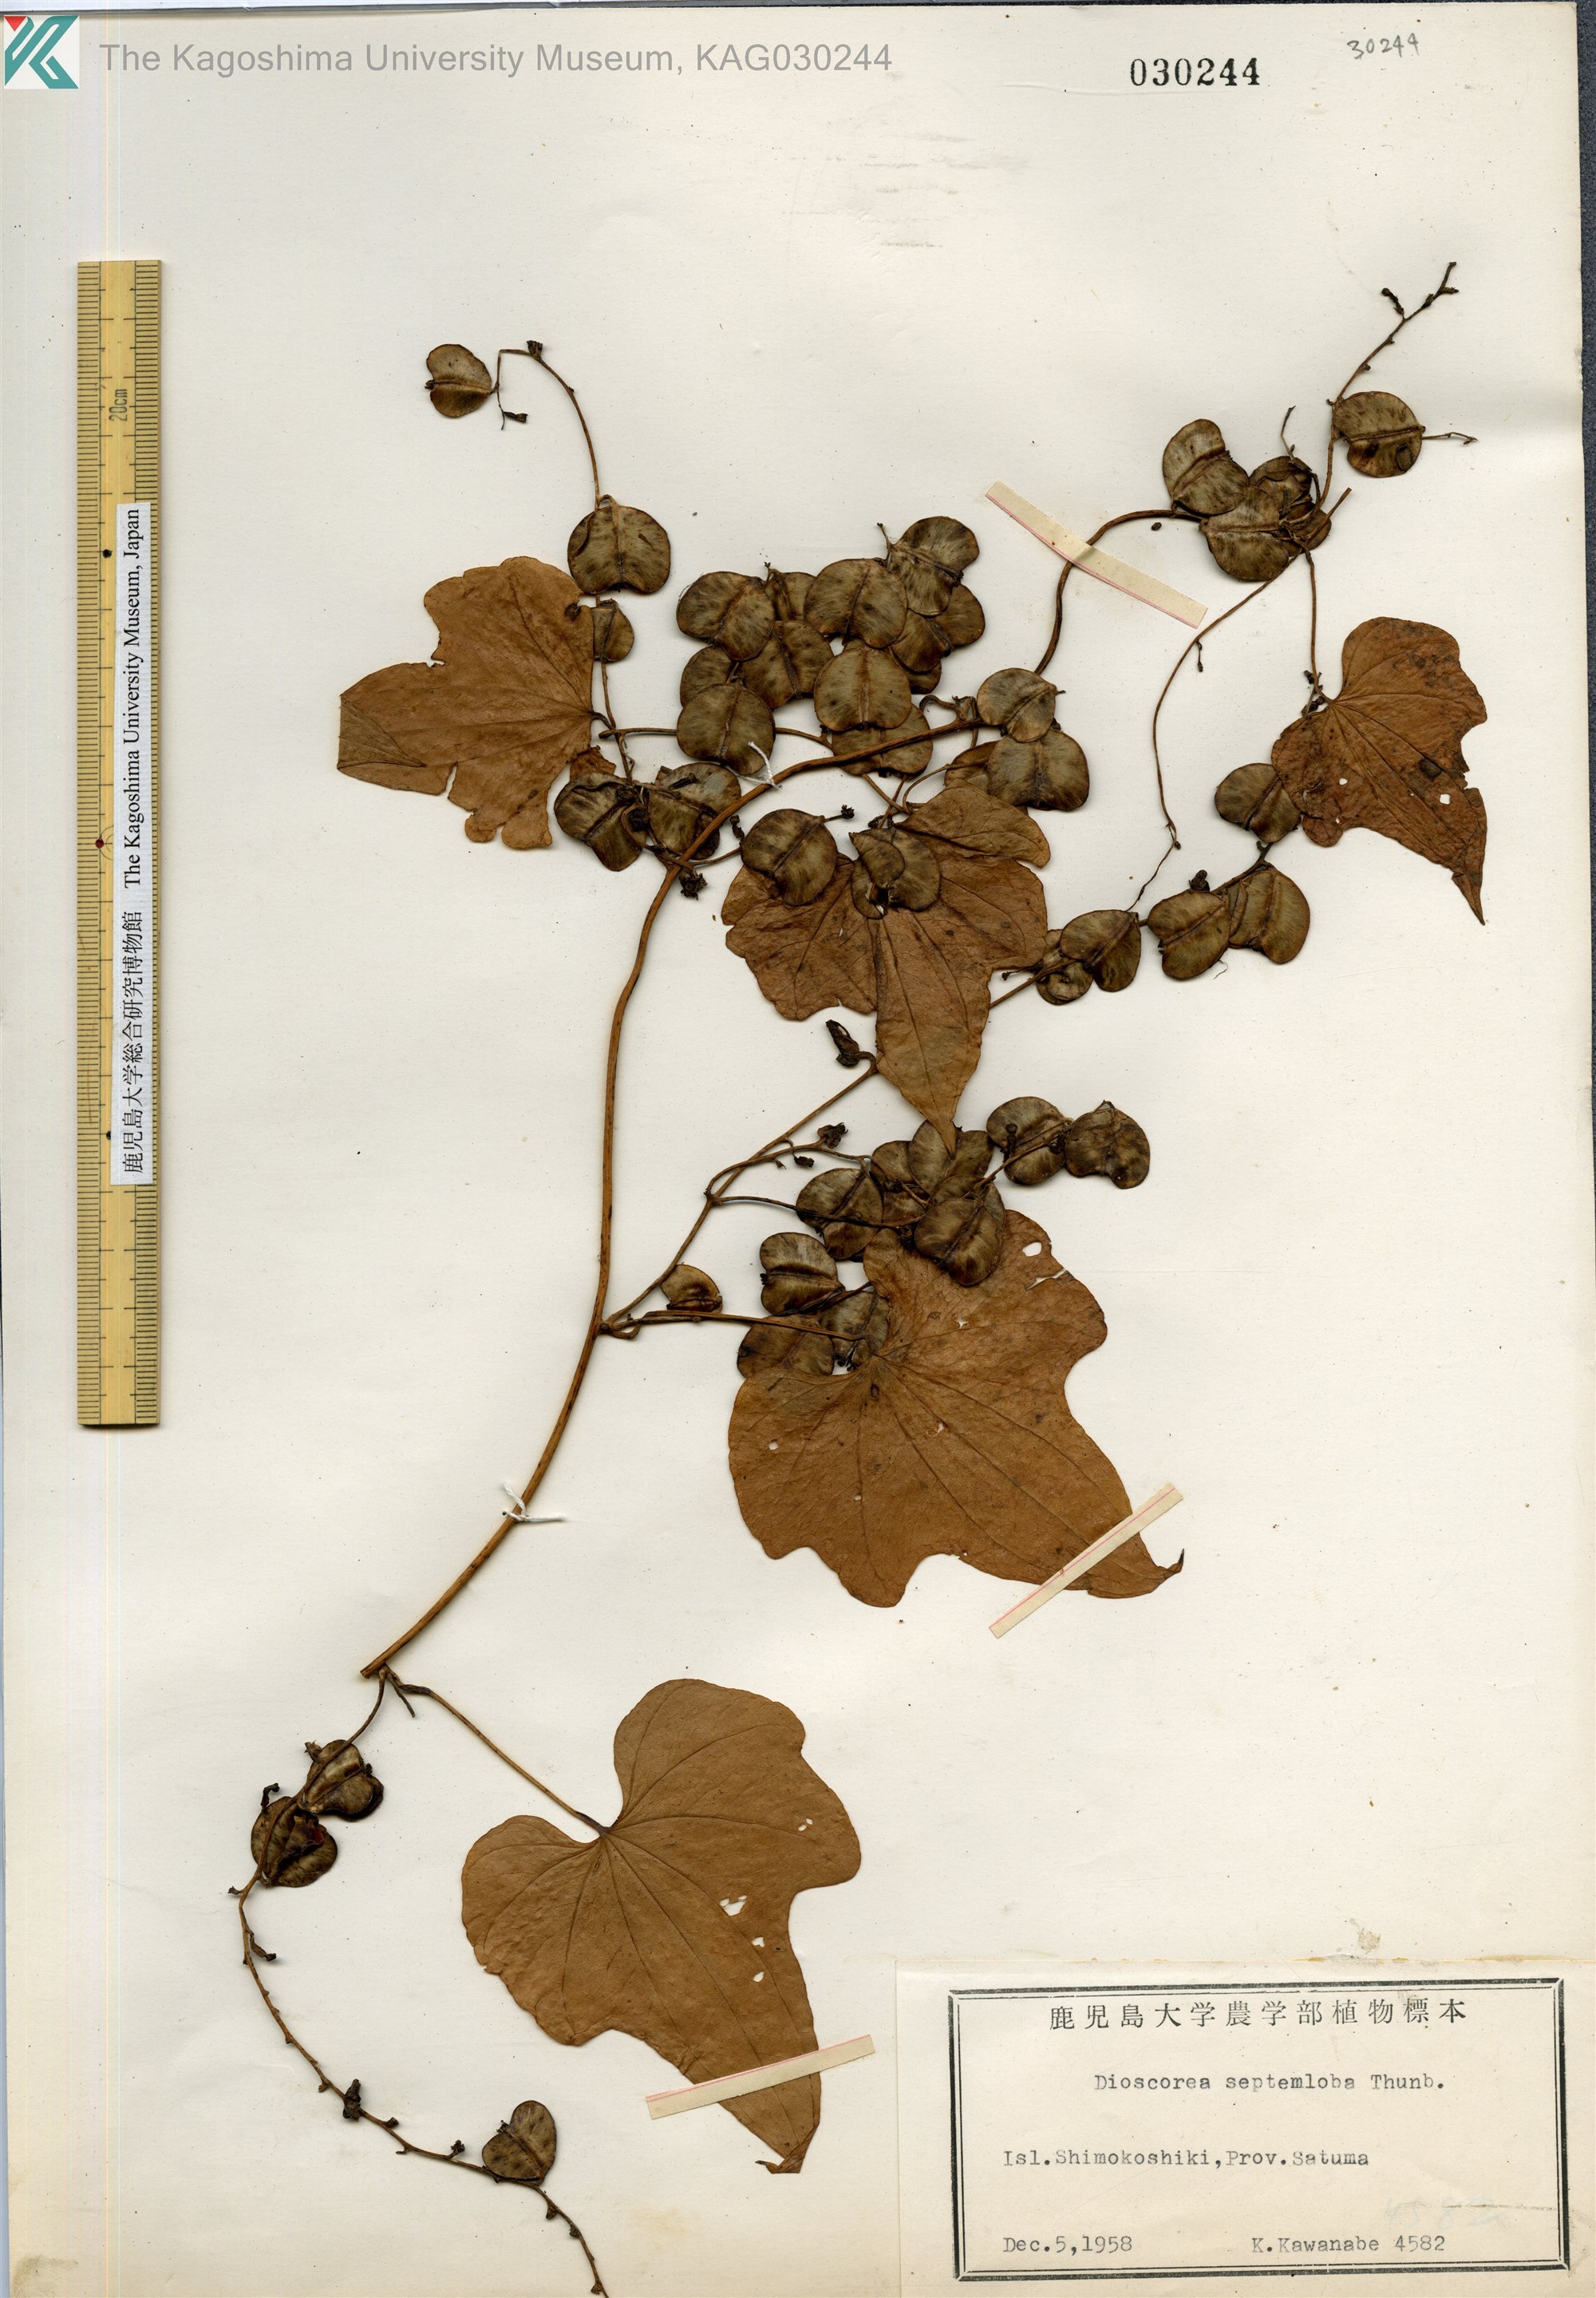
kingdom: Plantae
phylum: Tracheophyta
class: Liliopsida
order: Dioscoreales
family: Dioscoreaceae
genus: Dioscorea
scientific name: Dioscorea septemloba
